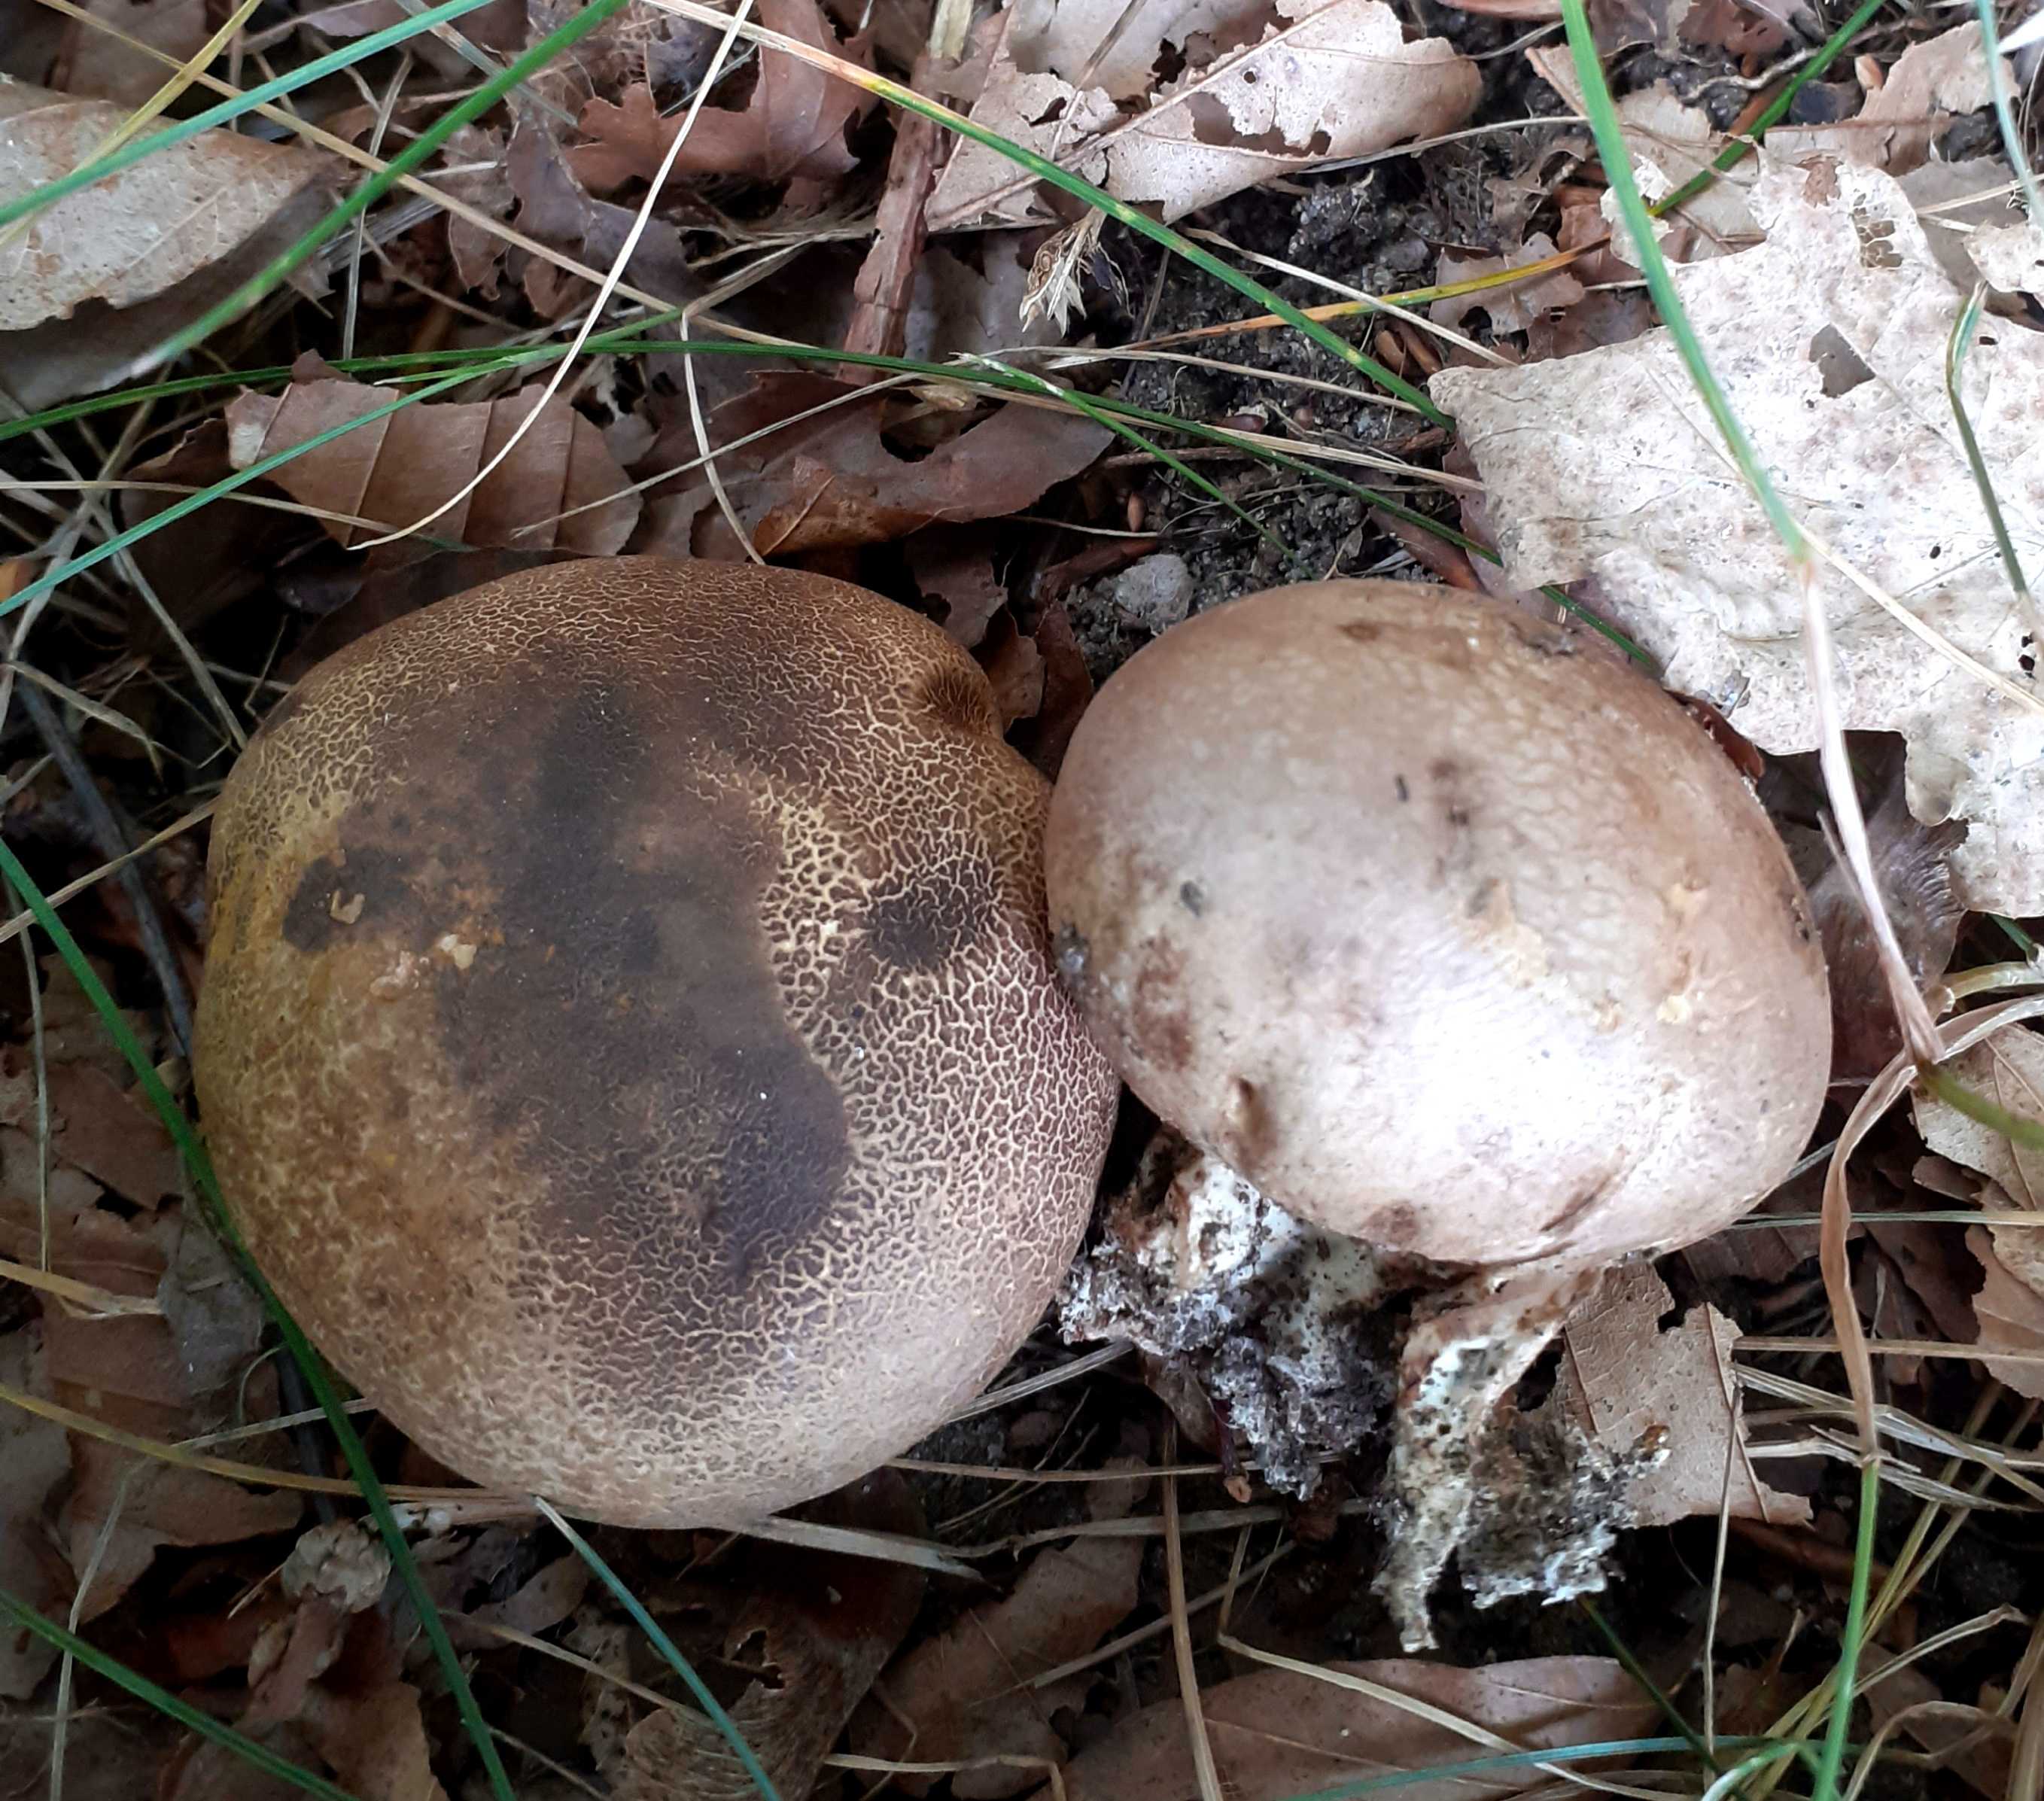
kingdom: Fungi
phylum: Basidiomycota
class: Agaricomycetes
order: Boletales
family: Sclerodermataceae
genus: Scleroderma
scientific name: Scleroderma bovista
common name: bovist-bruskbold
